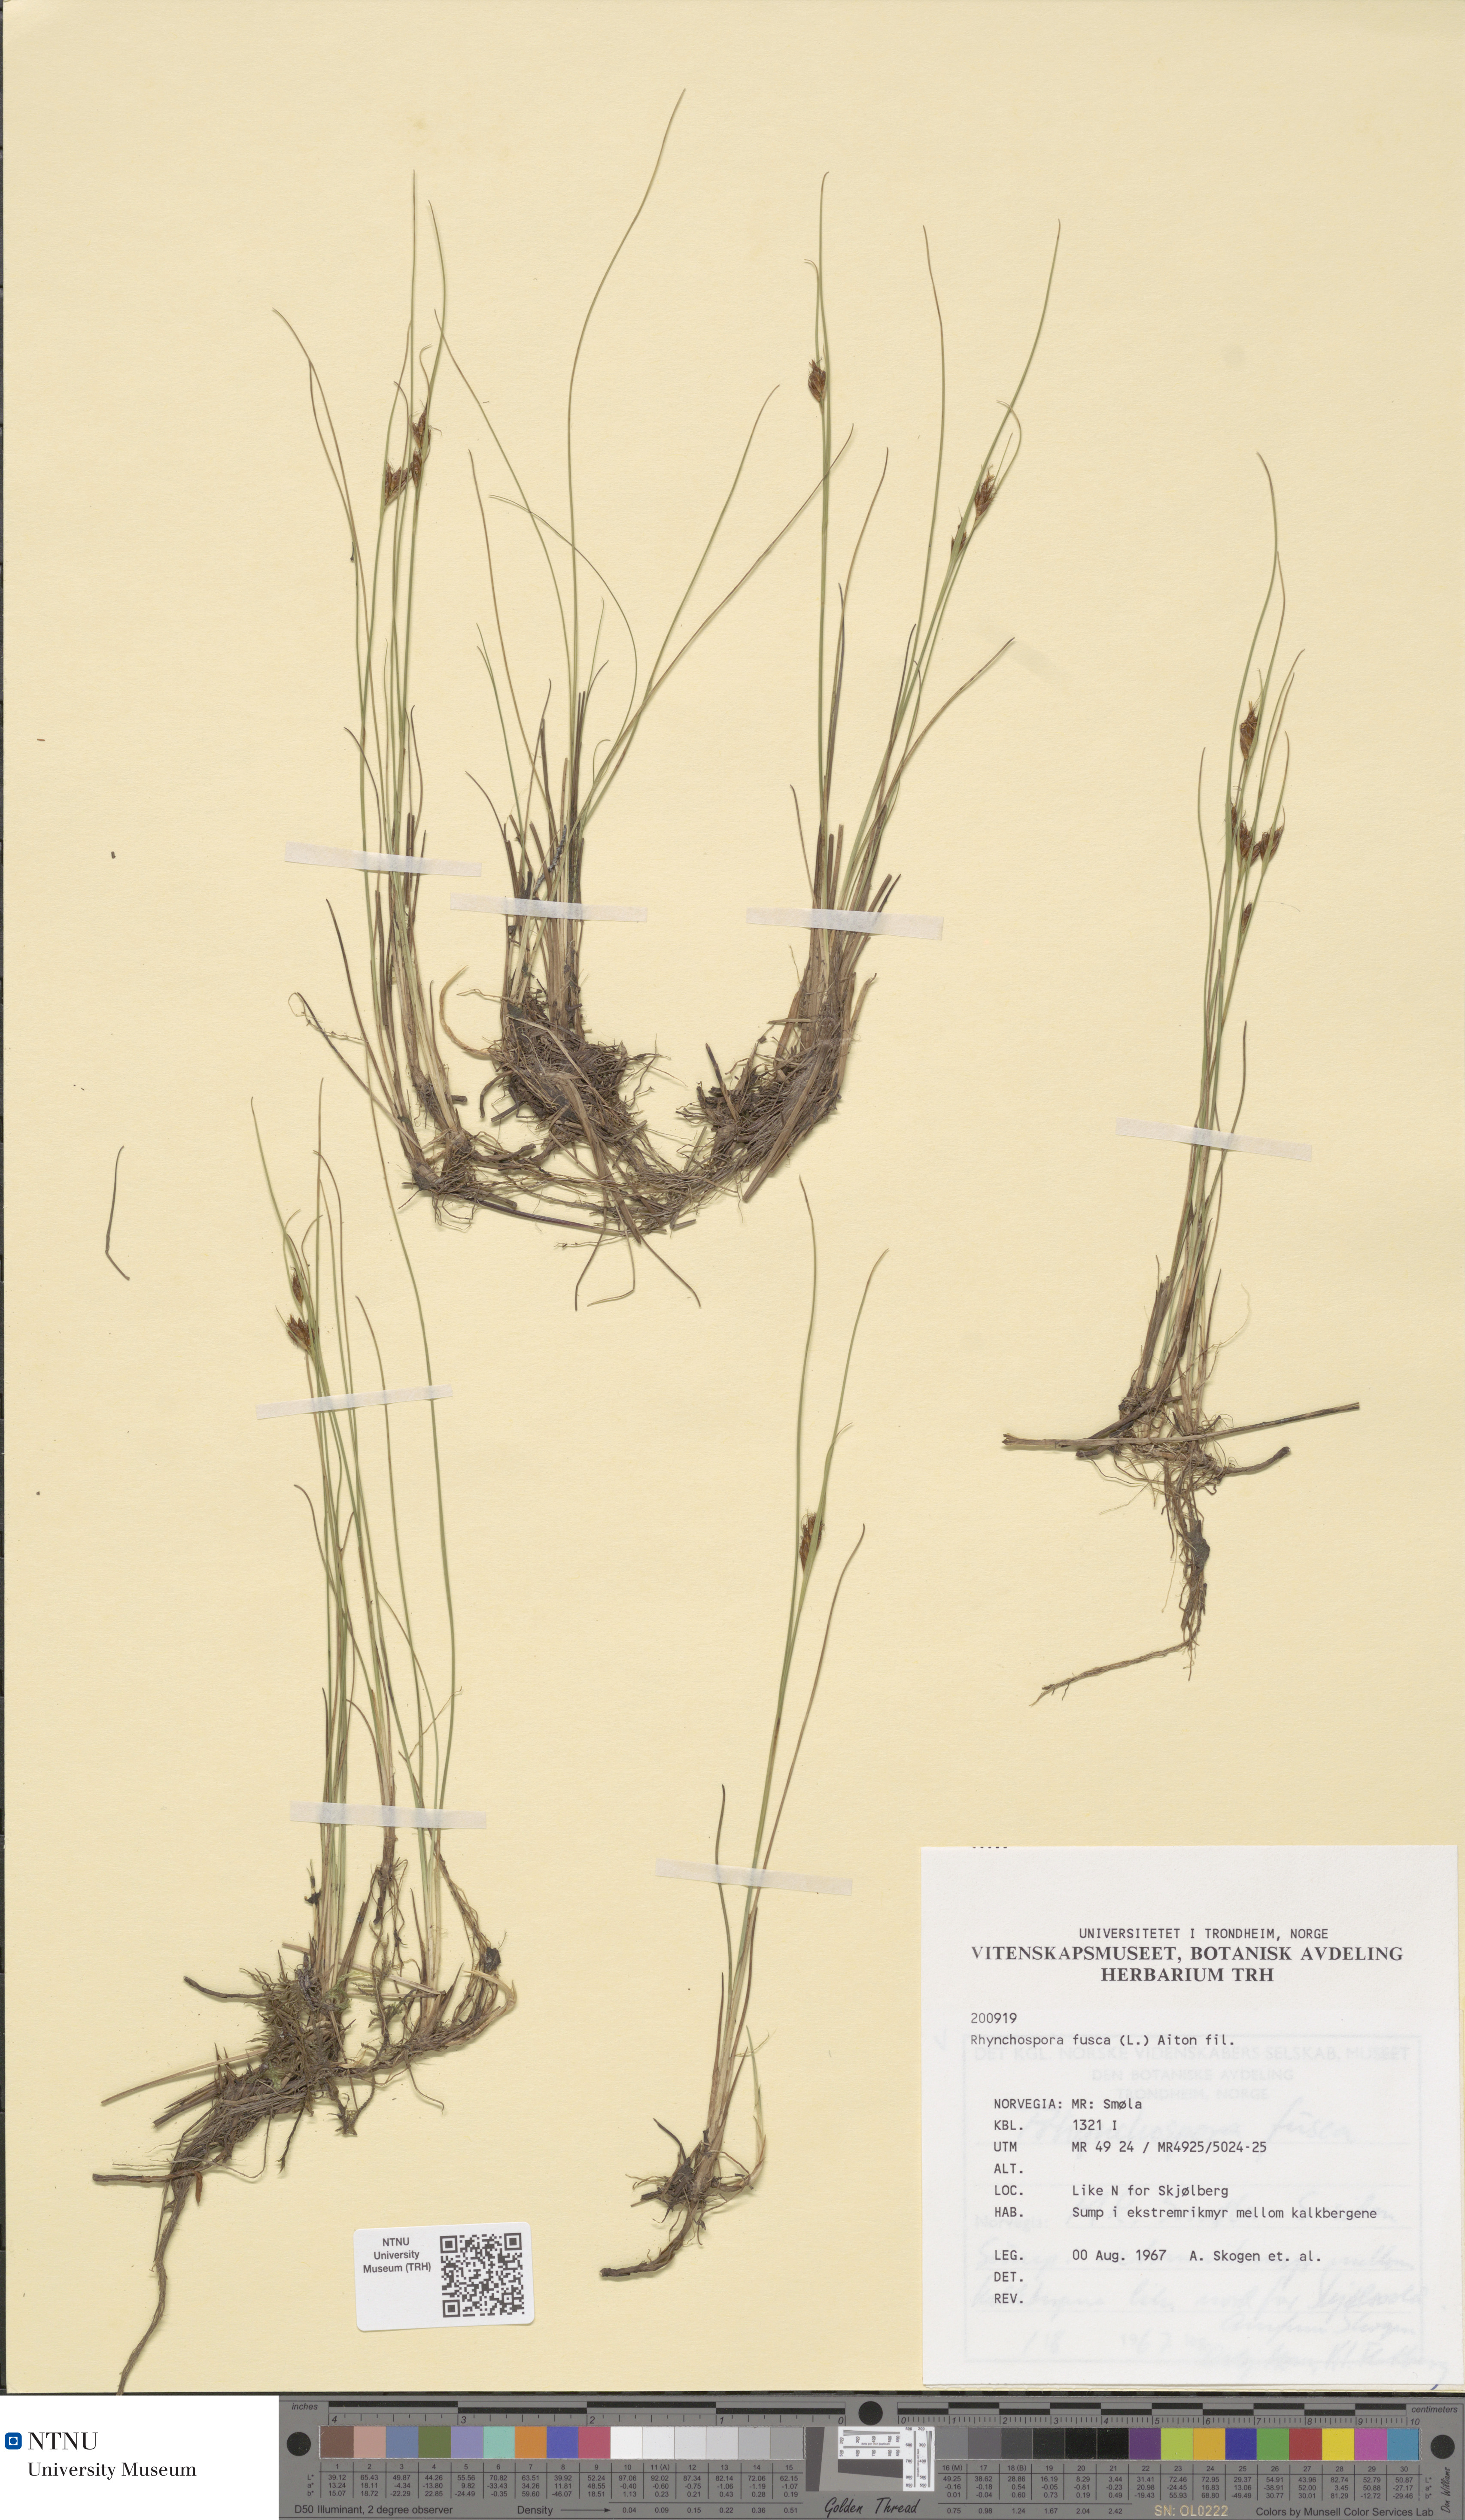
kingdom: Plantae
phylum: Tracheophyta
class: Liliopsida
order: Poales
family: Cyperaceae
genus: Rhynchospora
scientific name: Rhynchospora fusca
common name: Brown beak-sedge
